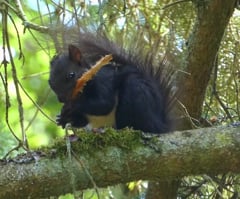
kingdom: Animalia
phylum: Chordata
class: Mammalia
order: Rodentia
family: Sciuridae
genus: Sciurus
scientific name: Sciurus vulgaris
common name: Eurasian red squirrel
